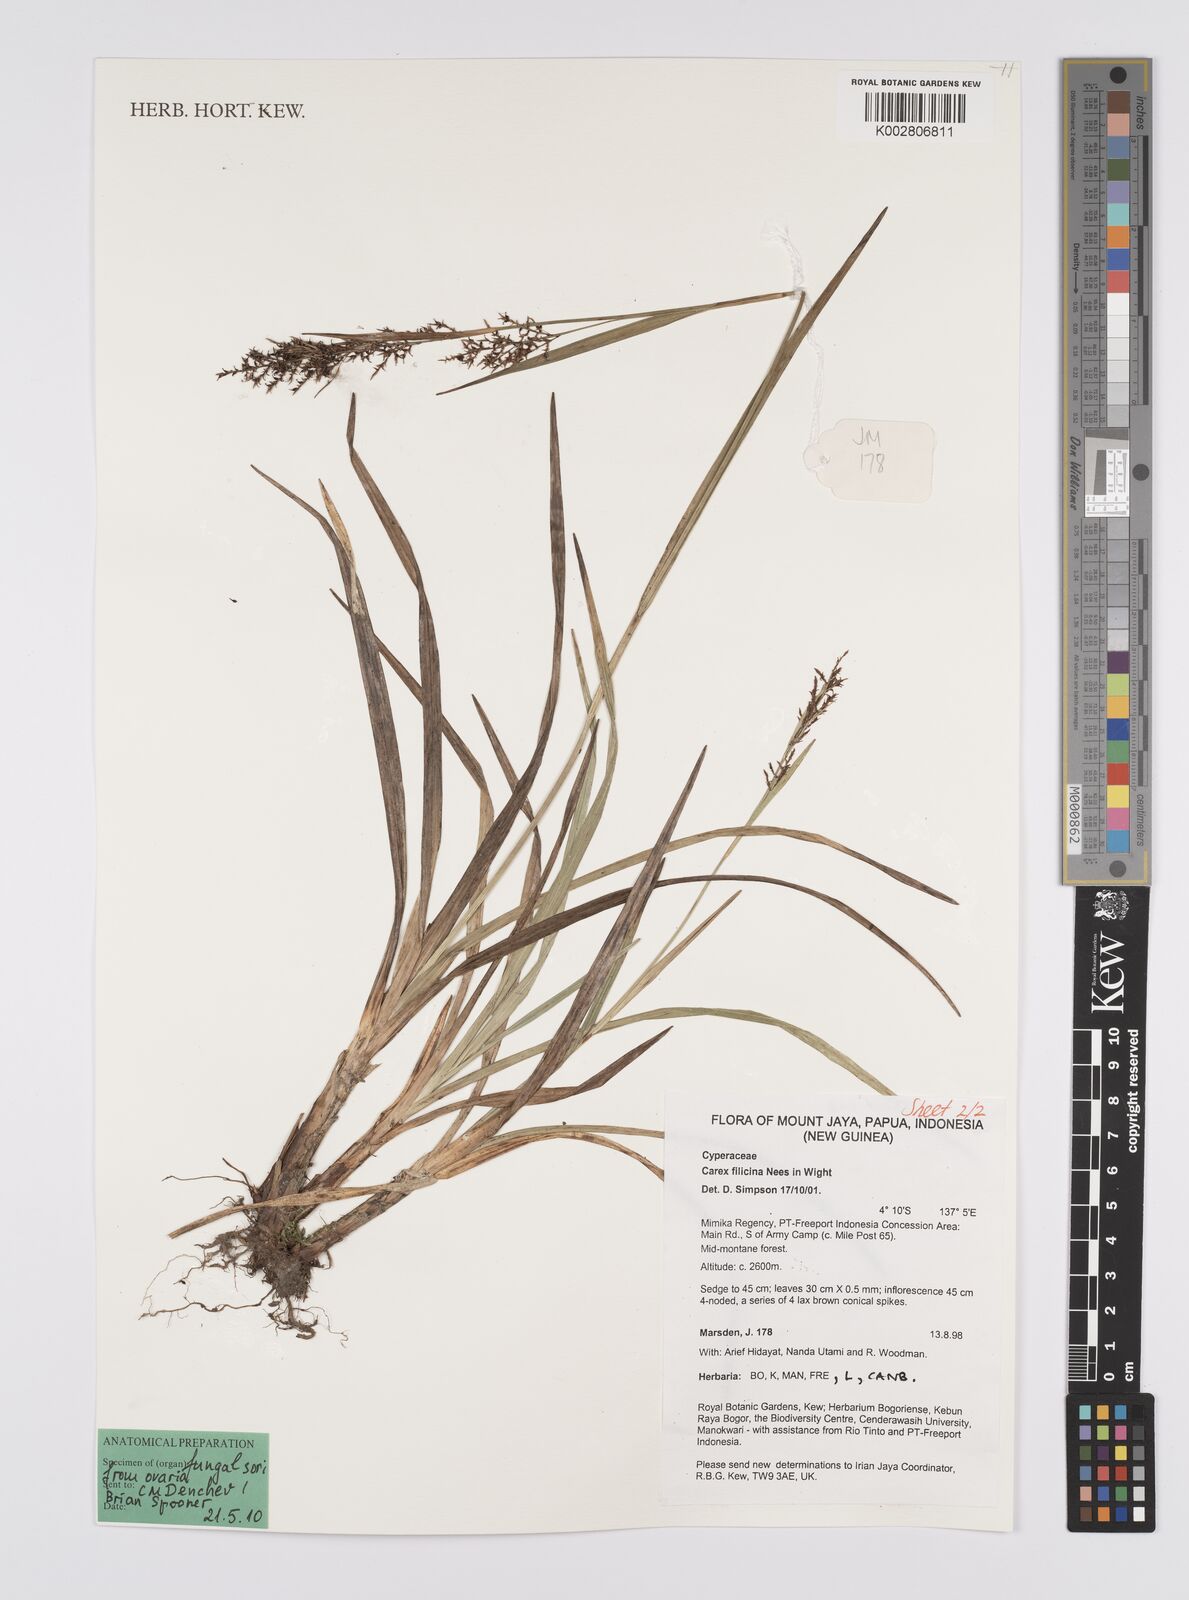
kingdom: Plantae
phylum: Tracheophyta
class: Liliopsida
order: Poales
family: Cyperaceae
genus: Carex
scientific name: Carex filicina
